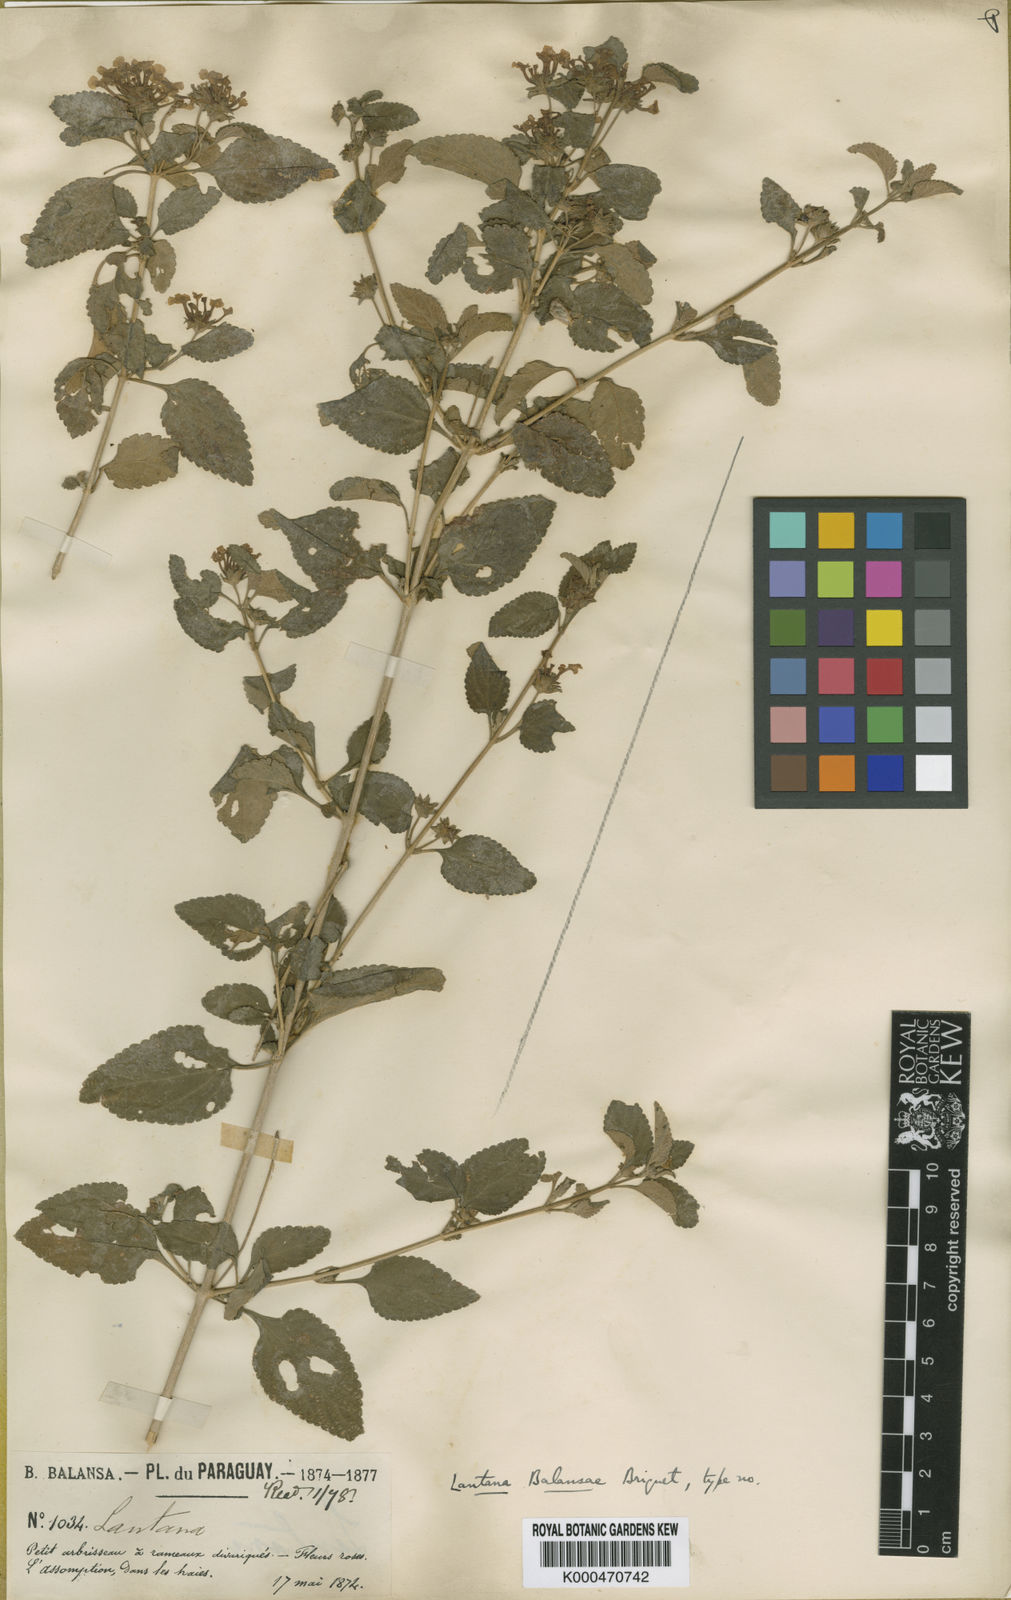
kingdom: Plantae
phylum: Tracheophyta
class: Magnoliopsida
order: Lamiales
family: Verbenaceae
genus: Lantana
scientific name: Lantana balansae
